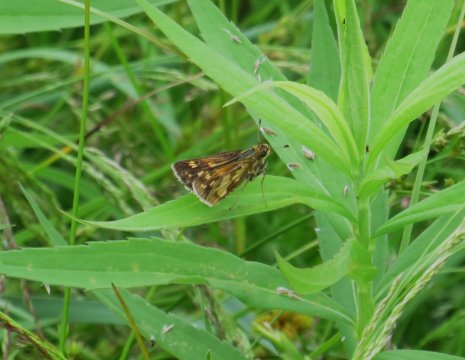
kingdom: Animalia
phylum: Arthropoda
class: Insecta
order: Lepidoptera
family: Hesperiidae
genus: Polites
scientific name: Polites coras
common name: Peck's Skipper
